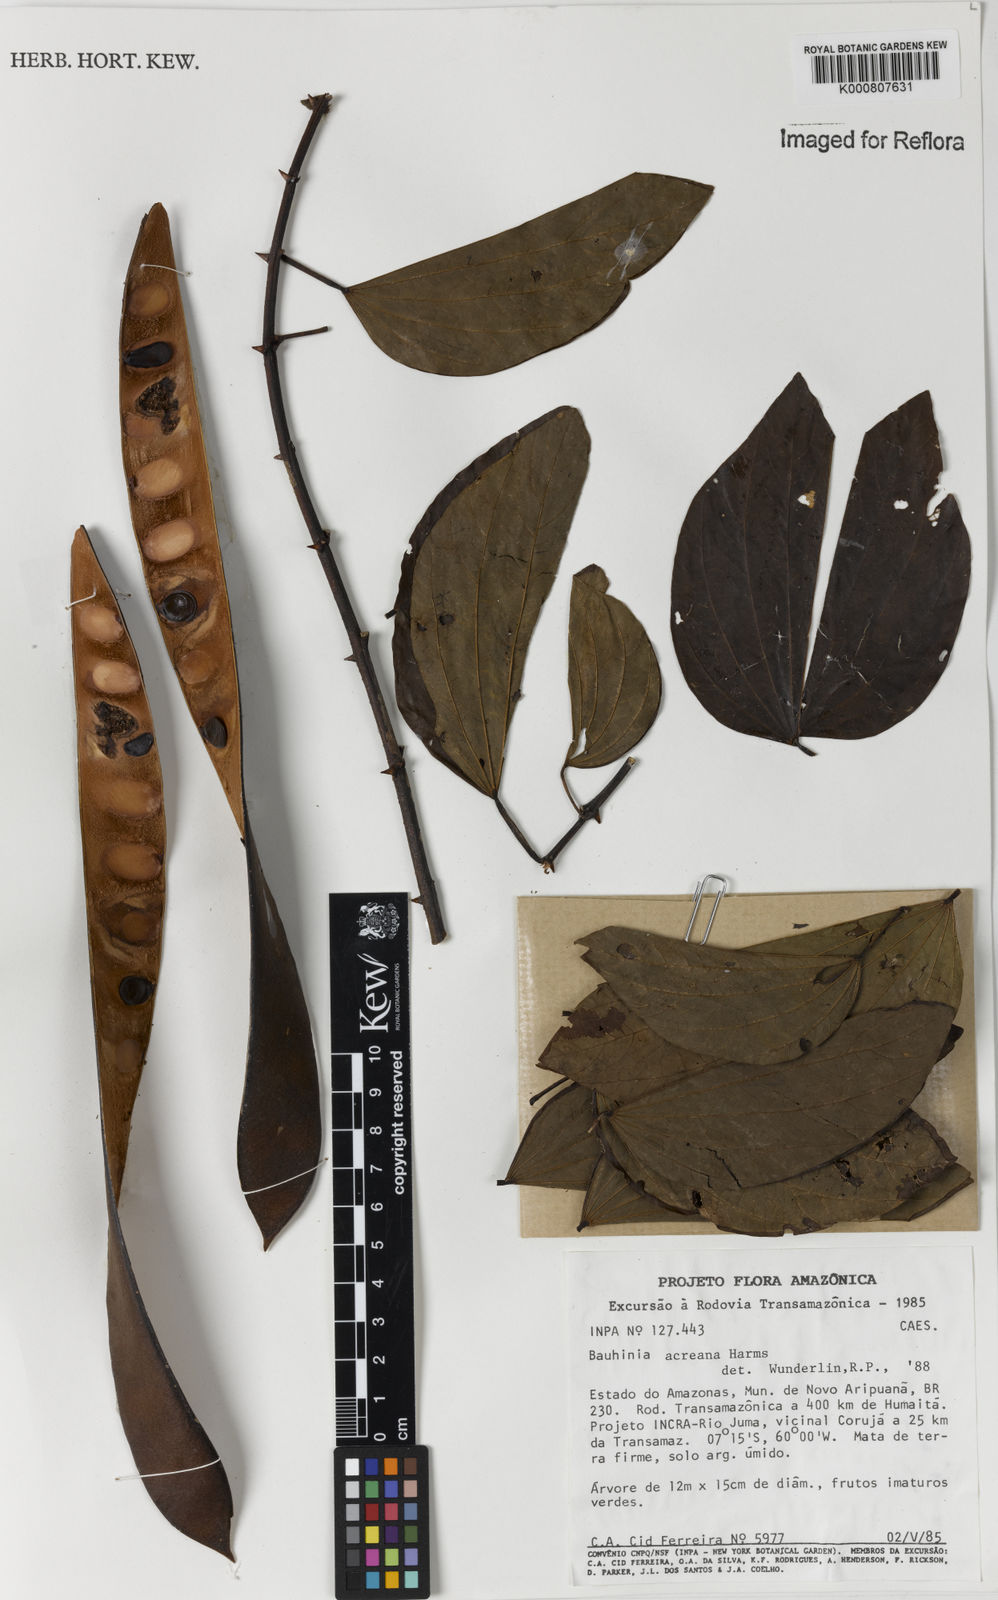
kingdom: Plantae
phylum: Tracheophyta
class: Magnoliopsida
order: Fabales
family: Fabaceae
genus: Bauhinia
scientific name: Bauhinia acreana
